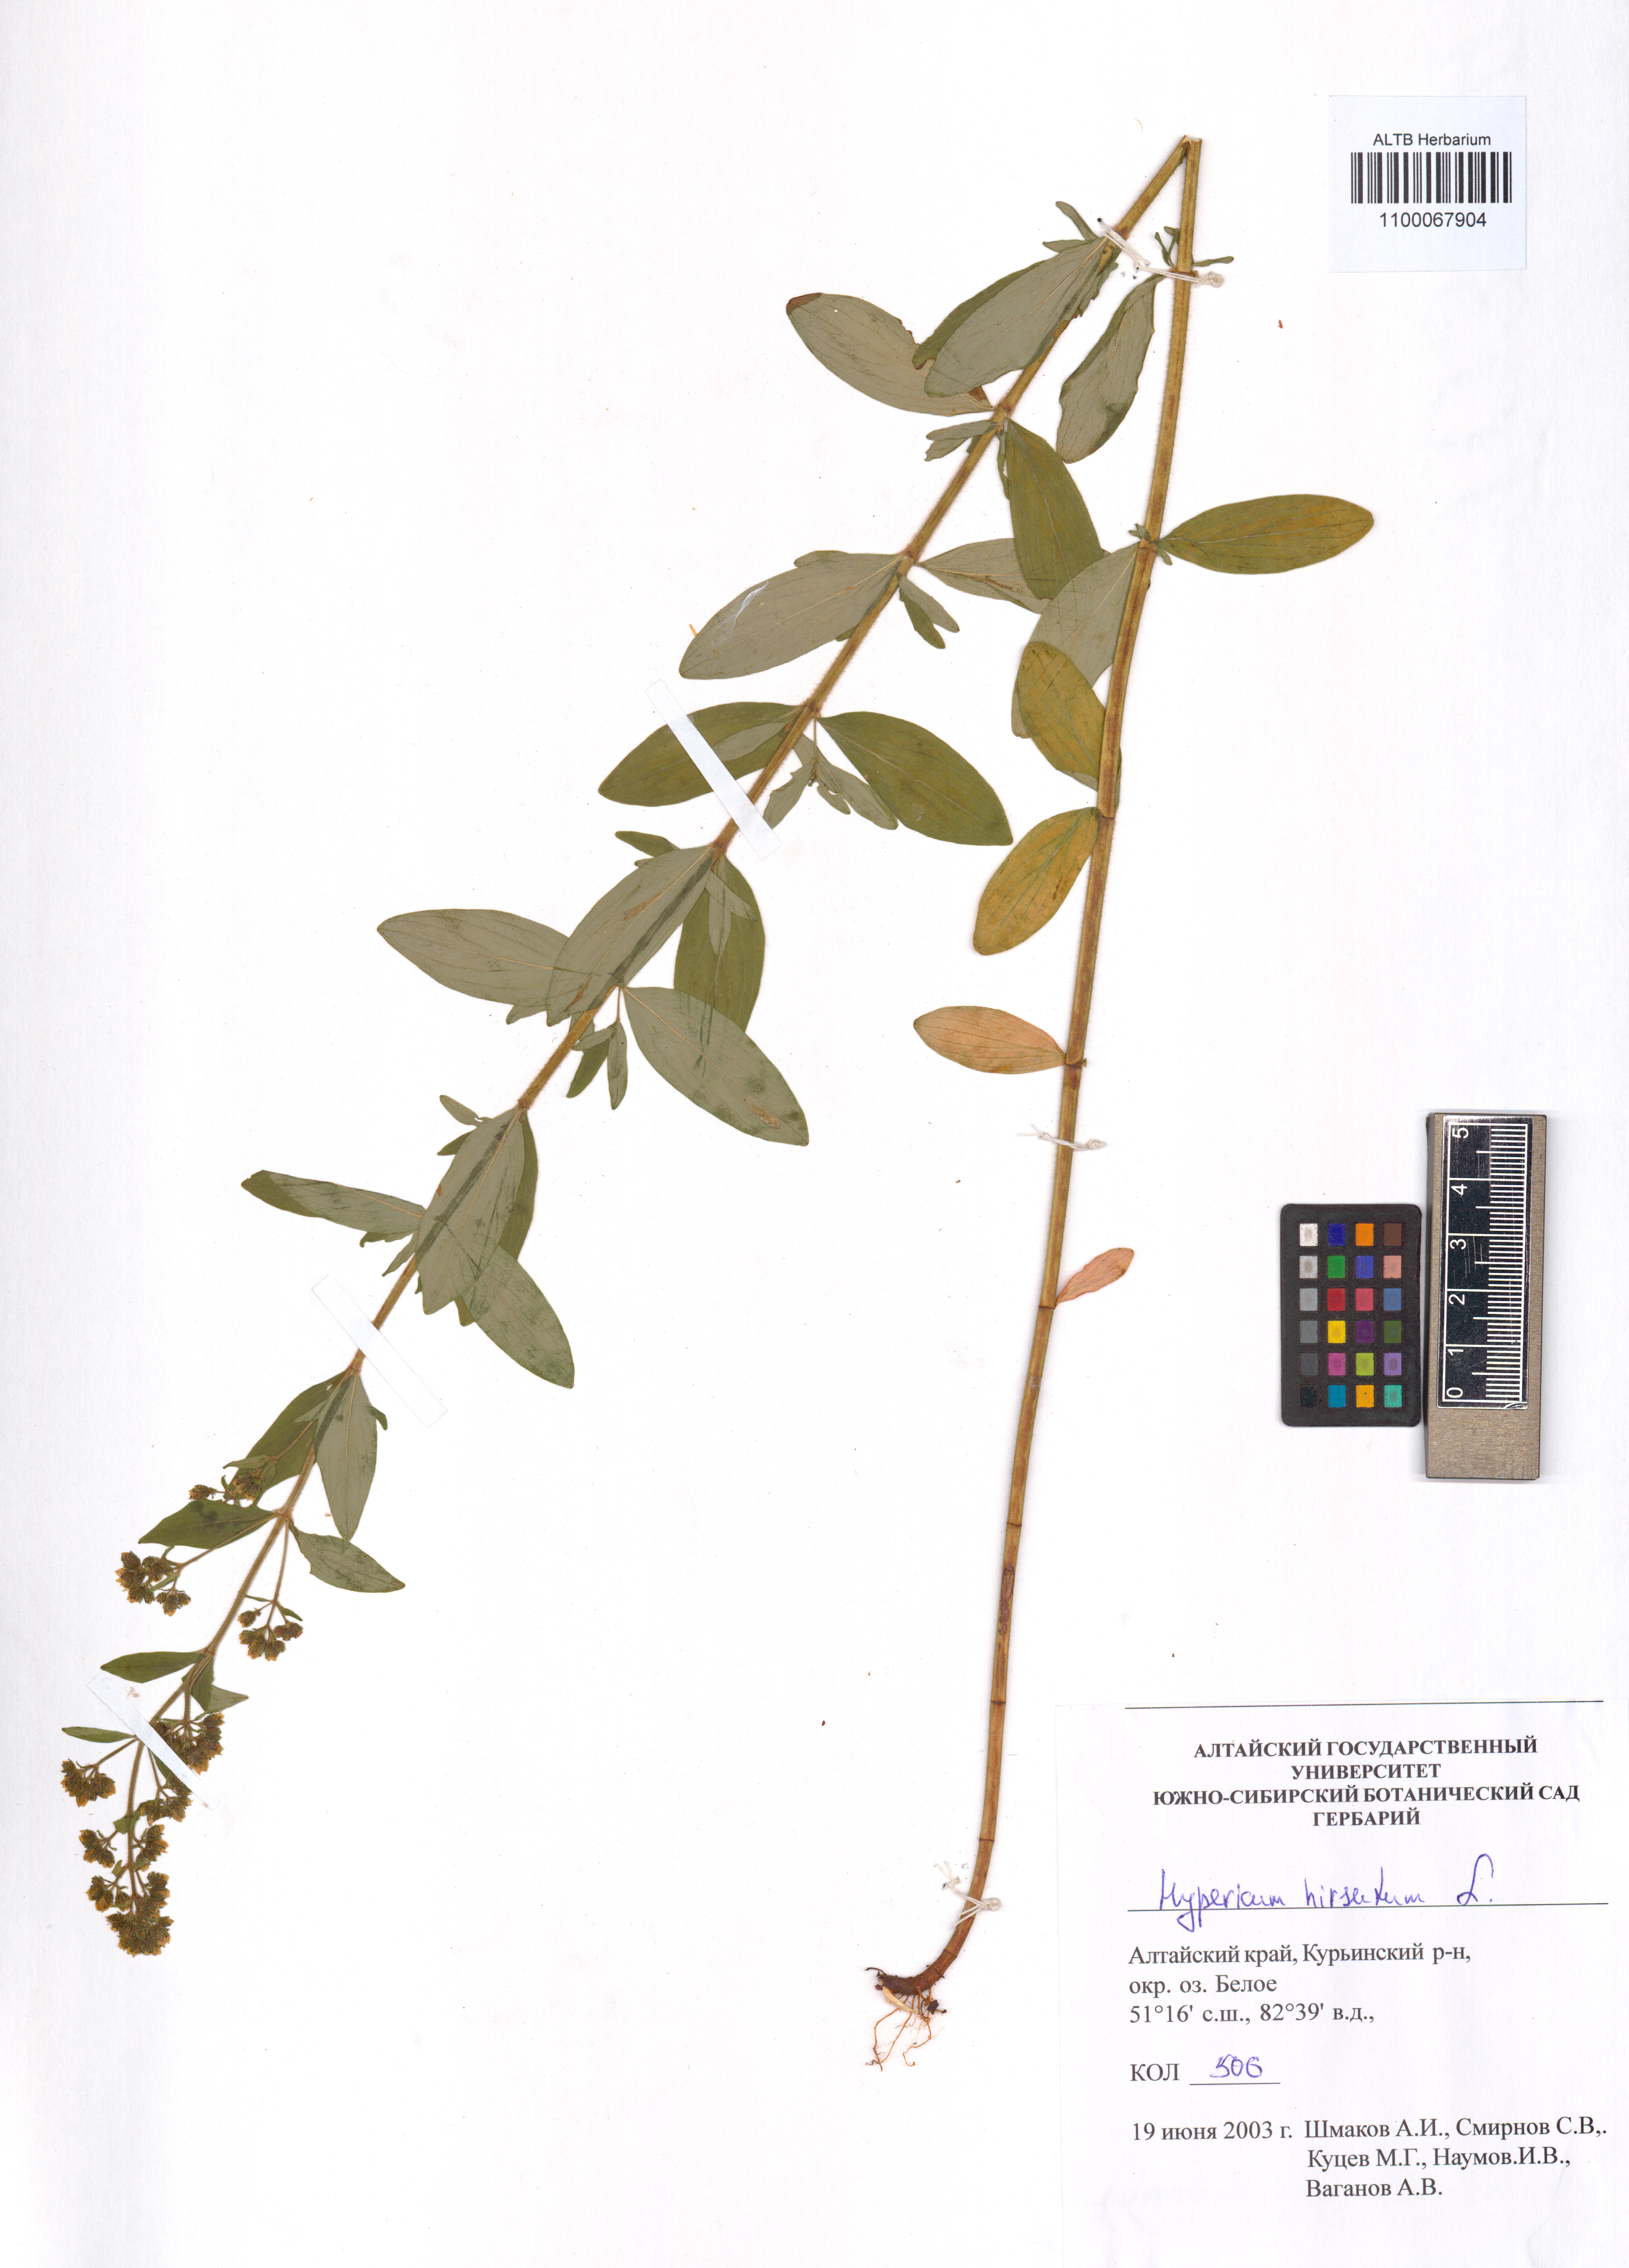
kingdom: Plantae
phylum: Tracheophyta
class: Magnoliopsida
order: Malpighiales
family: Hypericaceae
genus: Hypericum
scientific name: Hypericum hirsutum
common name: Hairy st. john's-wort
